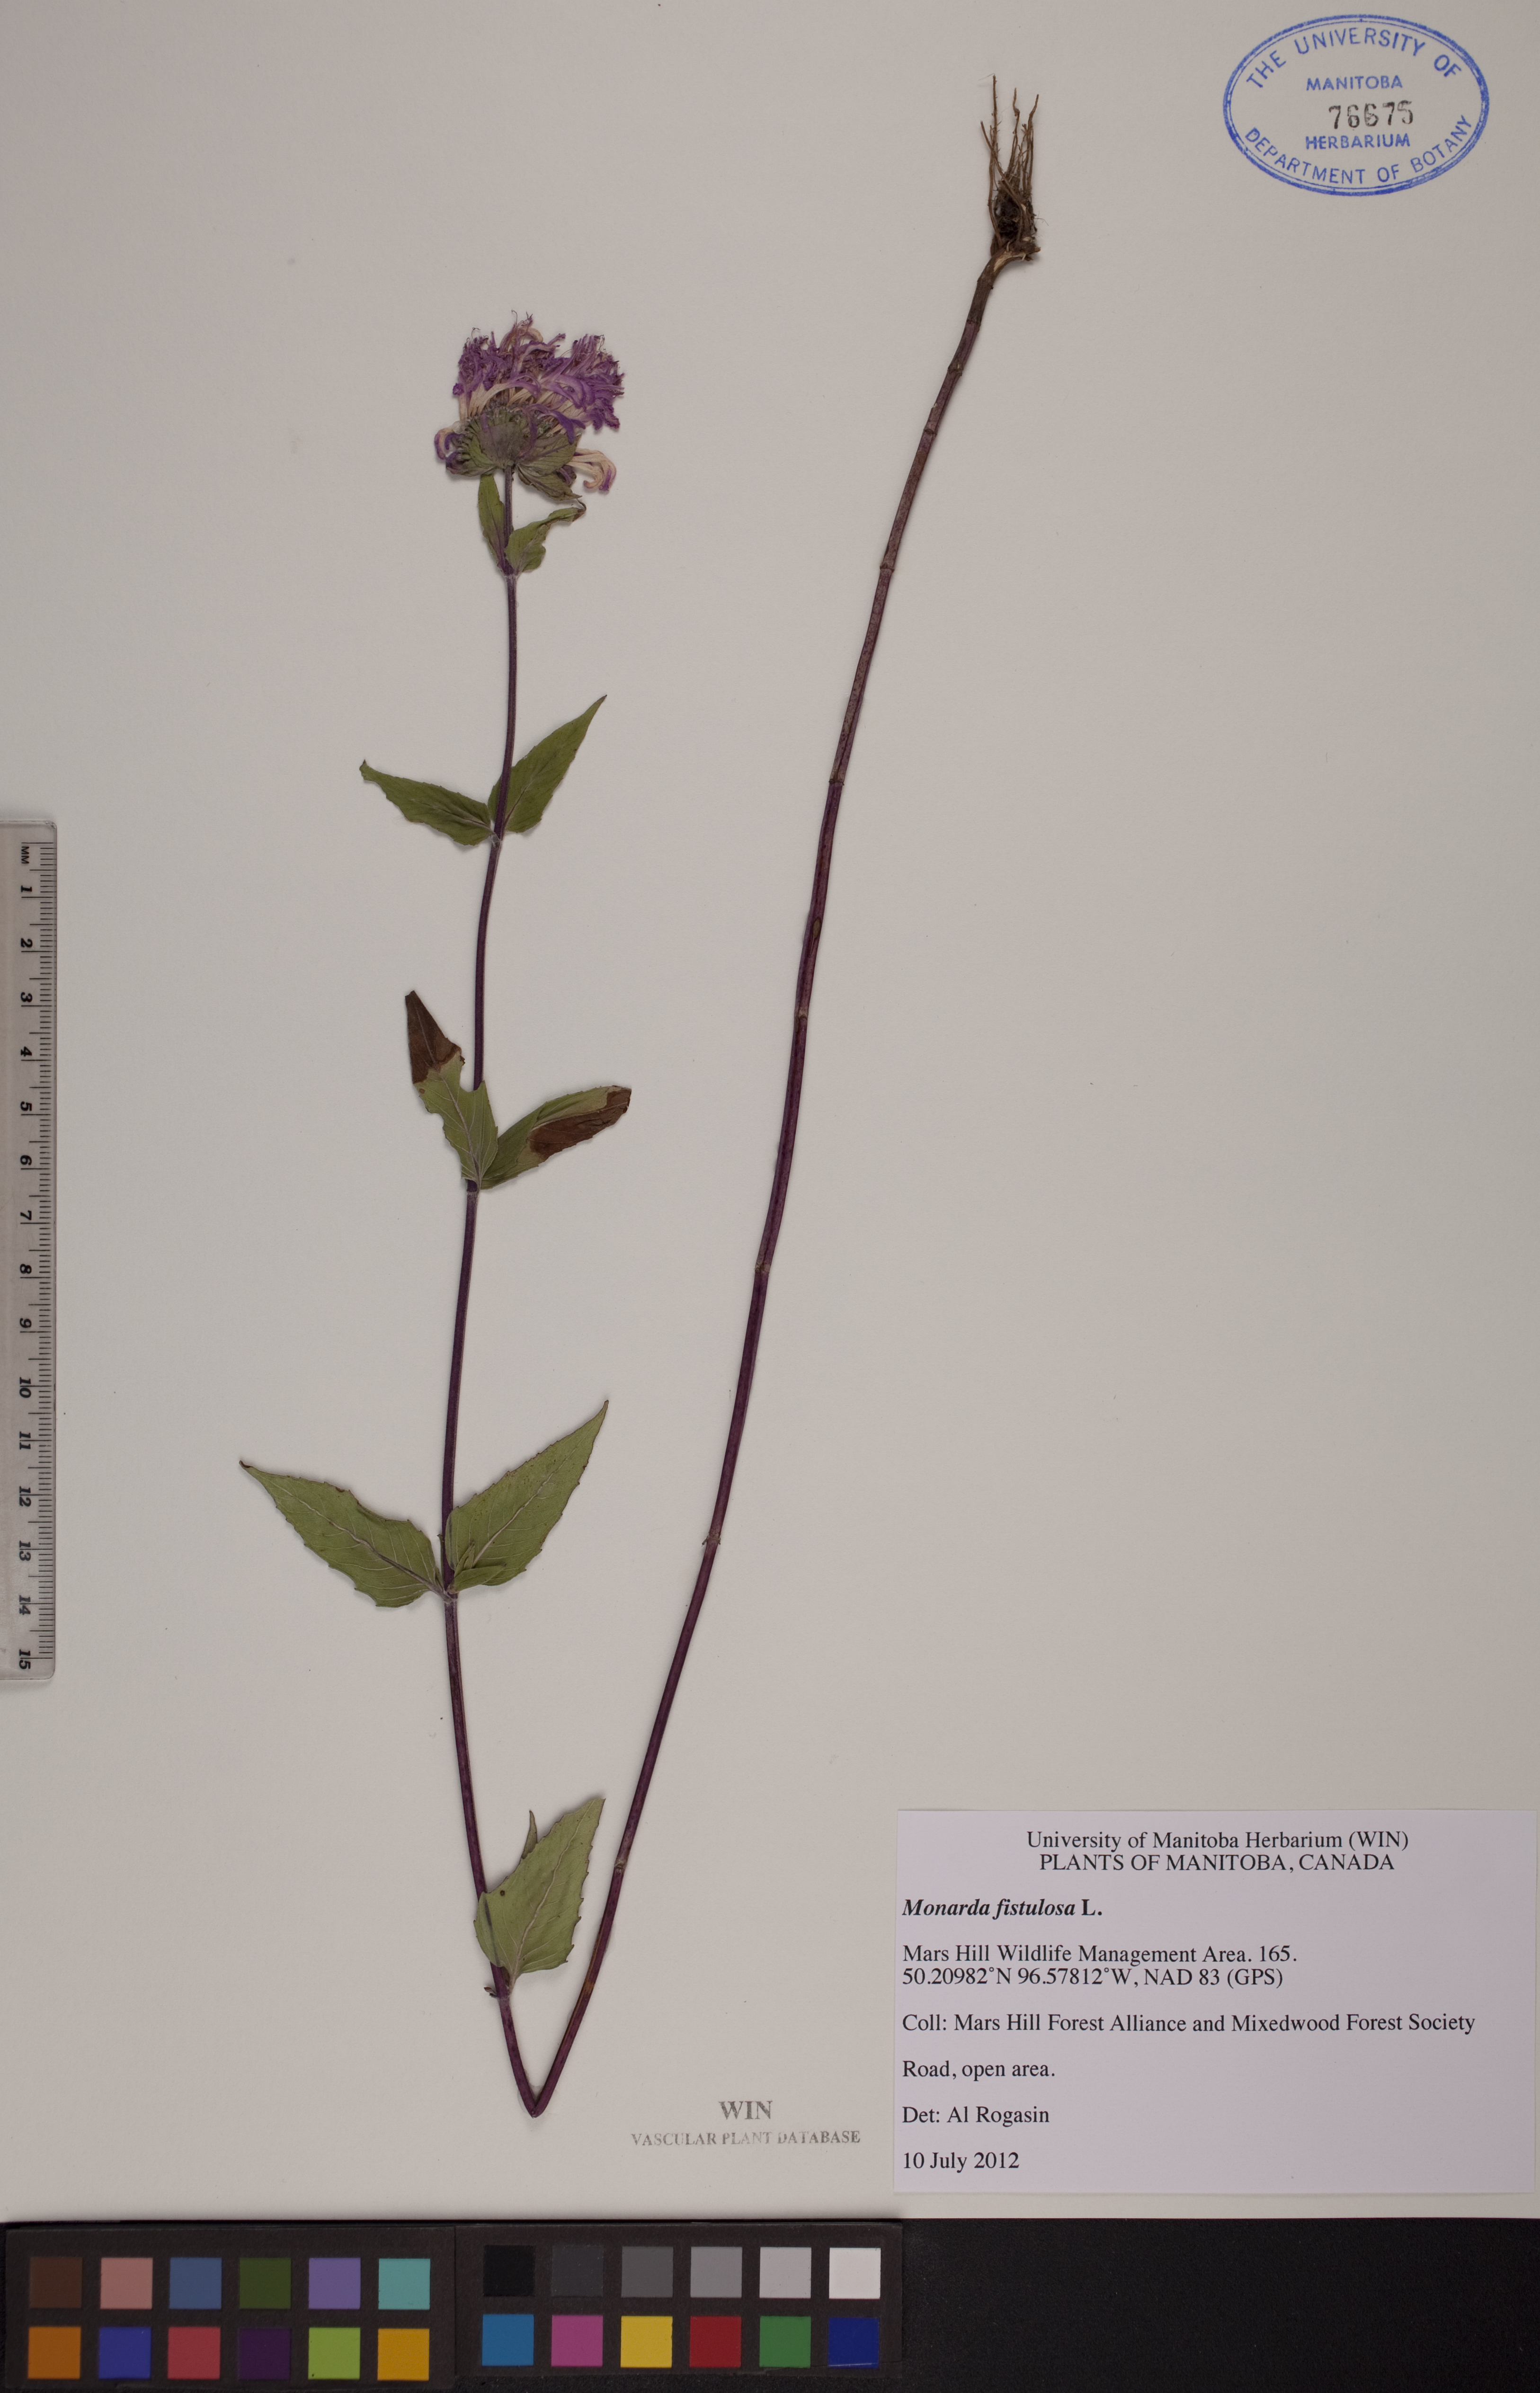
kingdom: Plantae
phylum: Tracheophyta
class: Magnoliopsida
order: Lamiales
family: Lamiaceae
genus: Monarda
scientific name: Monarda fistulosa
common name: Purple beebalm
